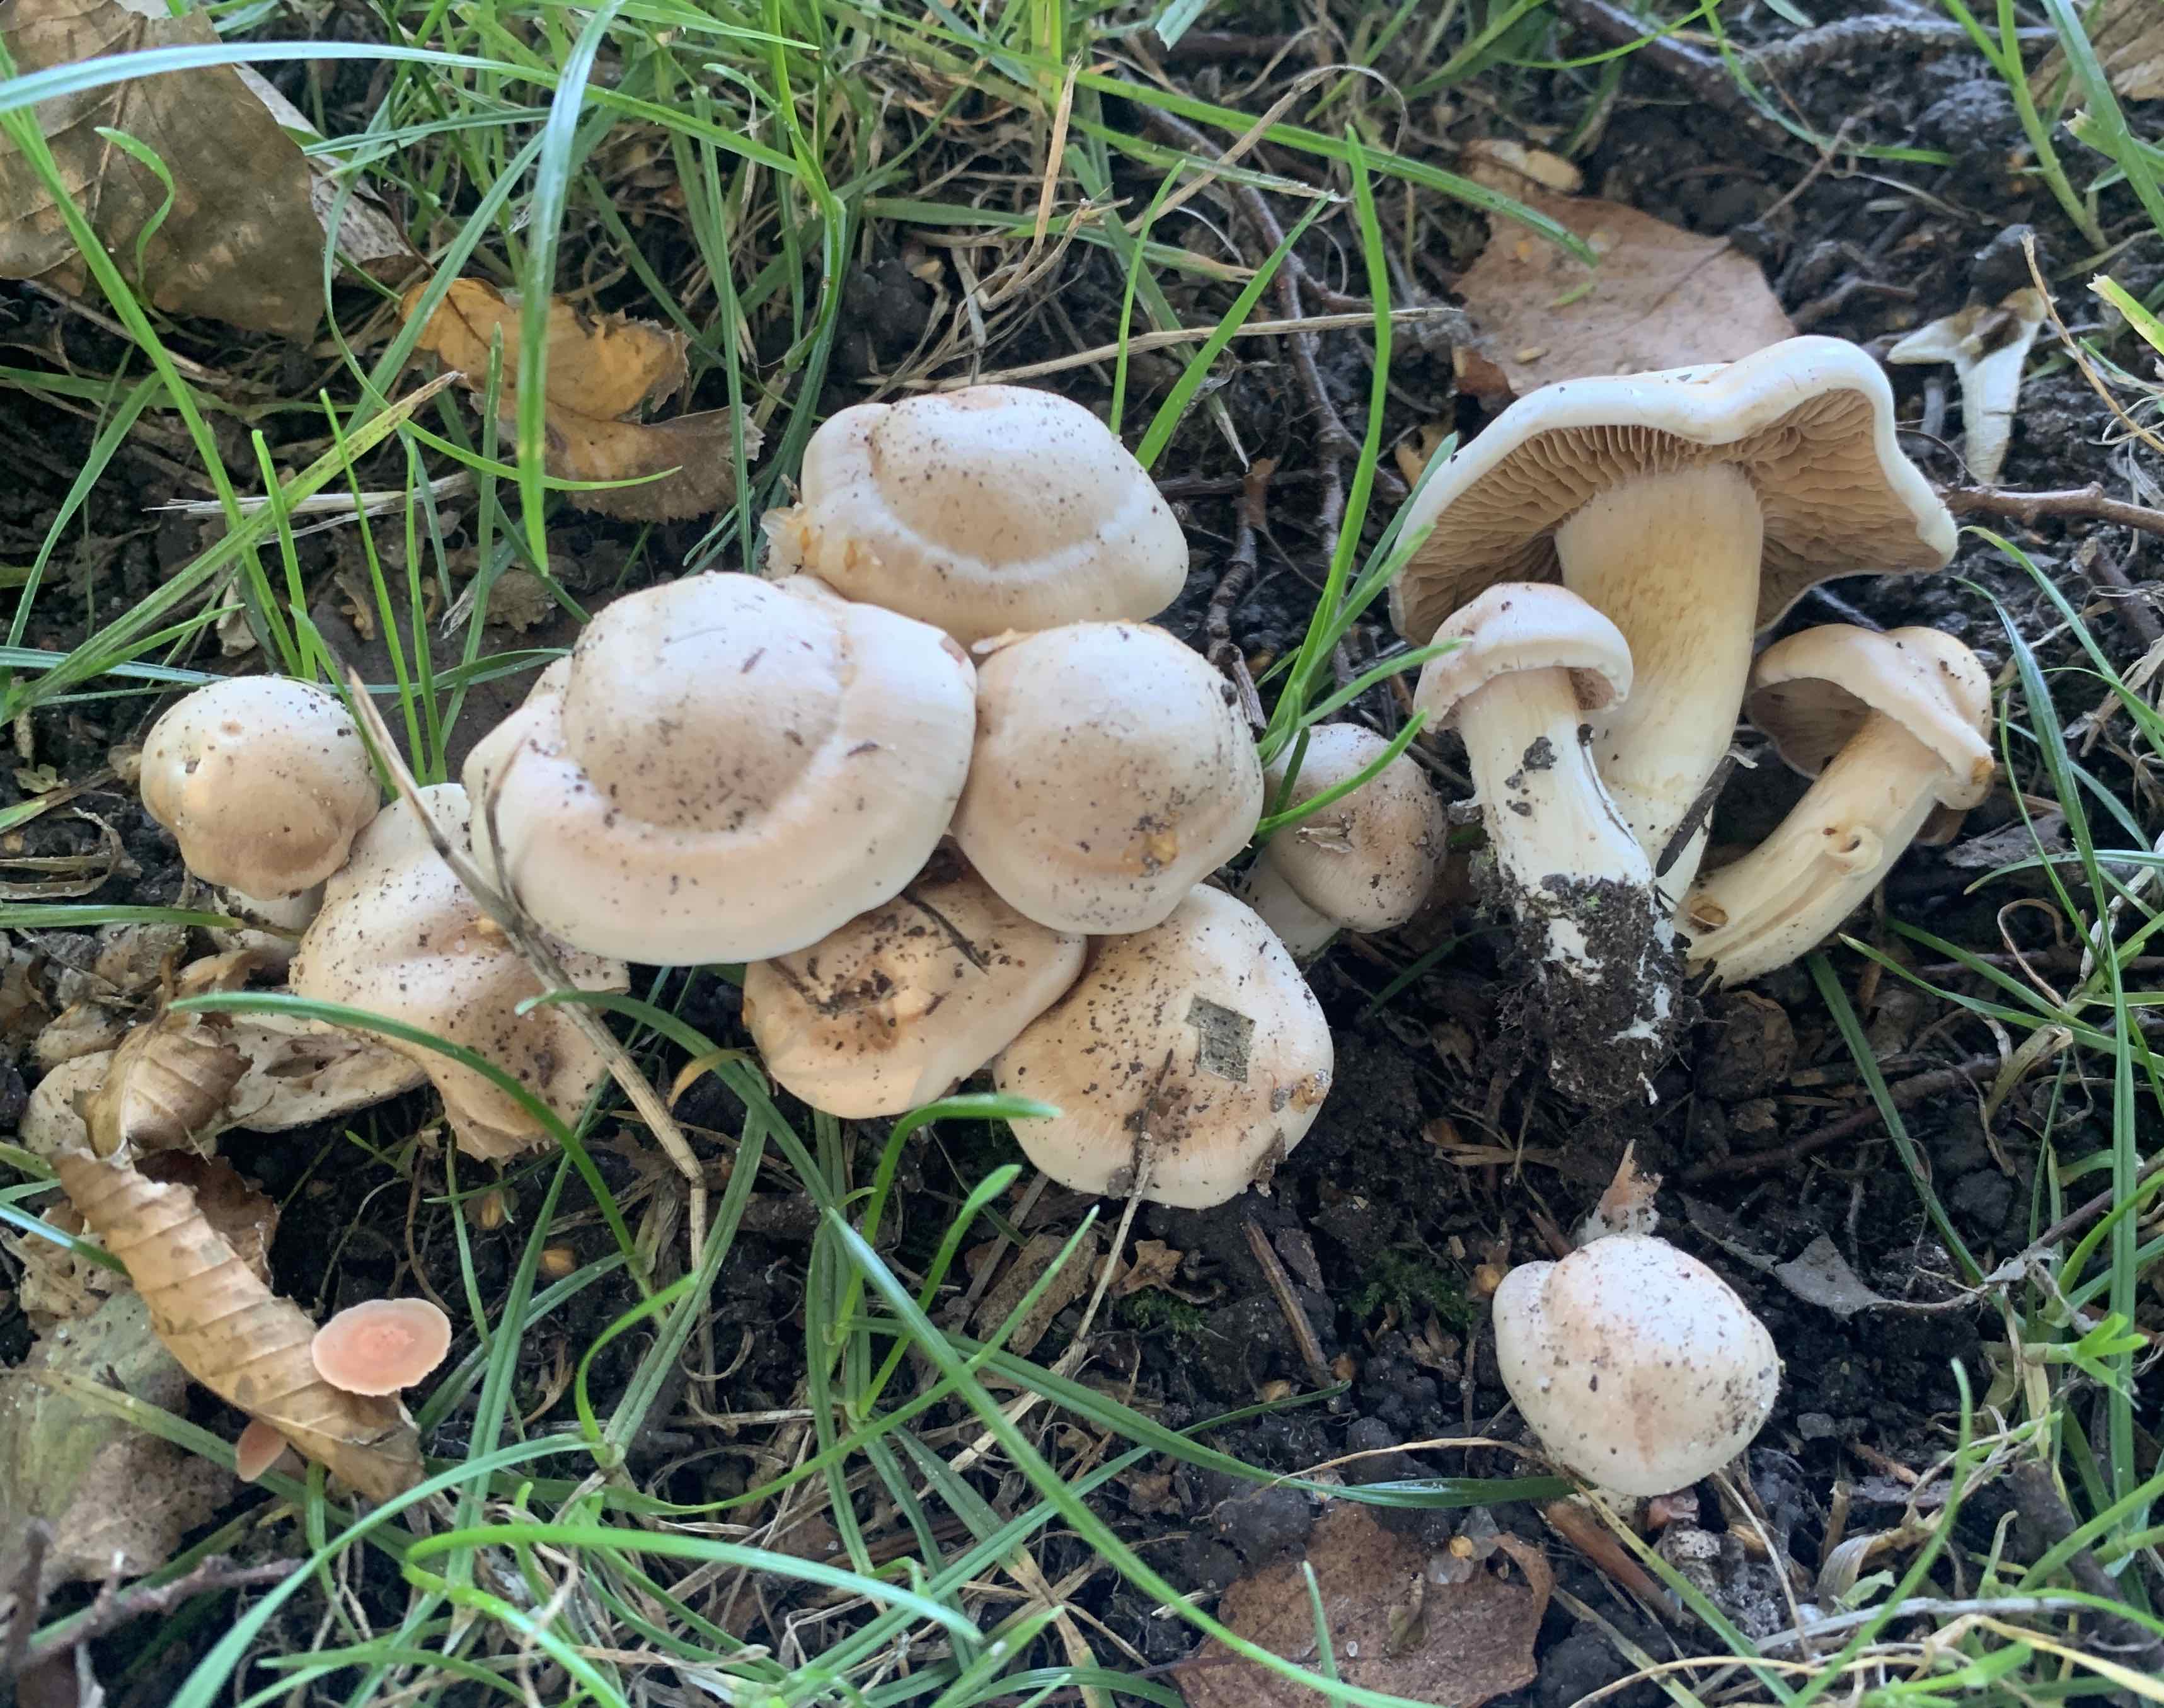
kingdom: Fungi
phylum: Basidiomycota
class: Agaricomycetes
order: Agaricales
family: Cortinariaceae
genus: Thaxterogaster
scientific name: Thaxterogaster leucoluteolus
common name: isabella slørhat
